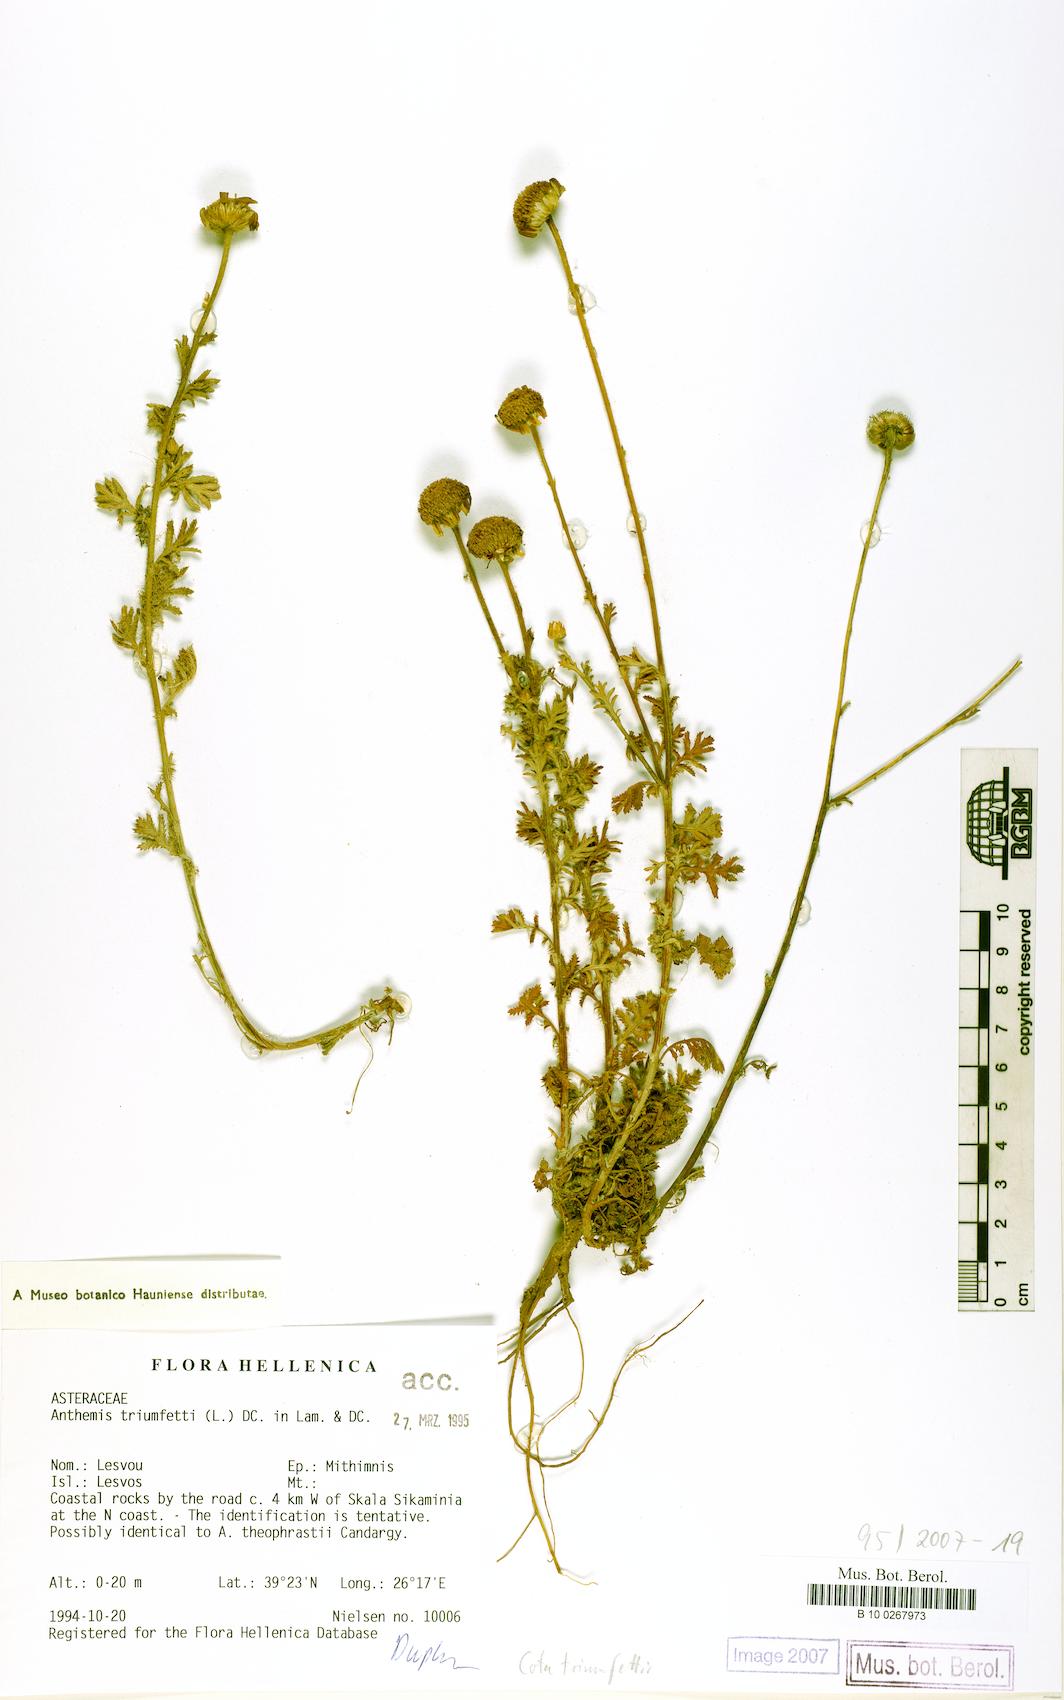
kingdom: Plantae
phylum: Tracheophyta
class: Magnoliopsida
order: Asterales
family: Asteraceae
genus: Cota
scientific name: Cota triumfetti
